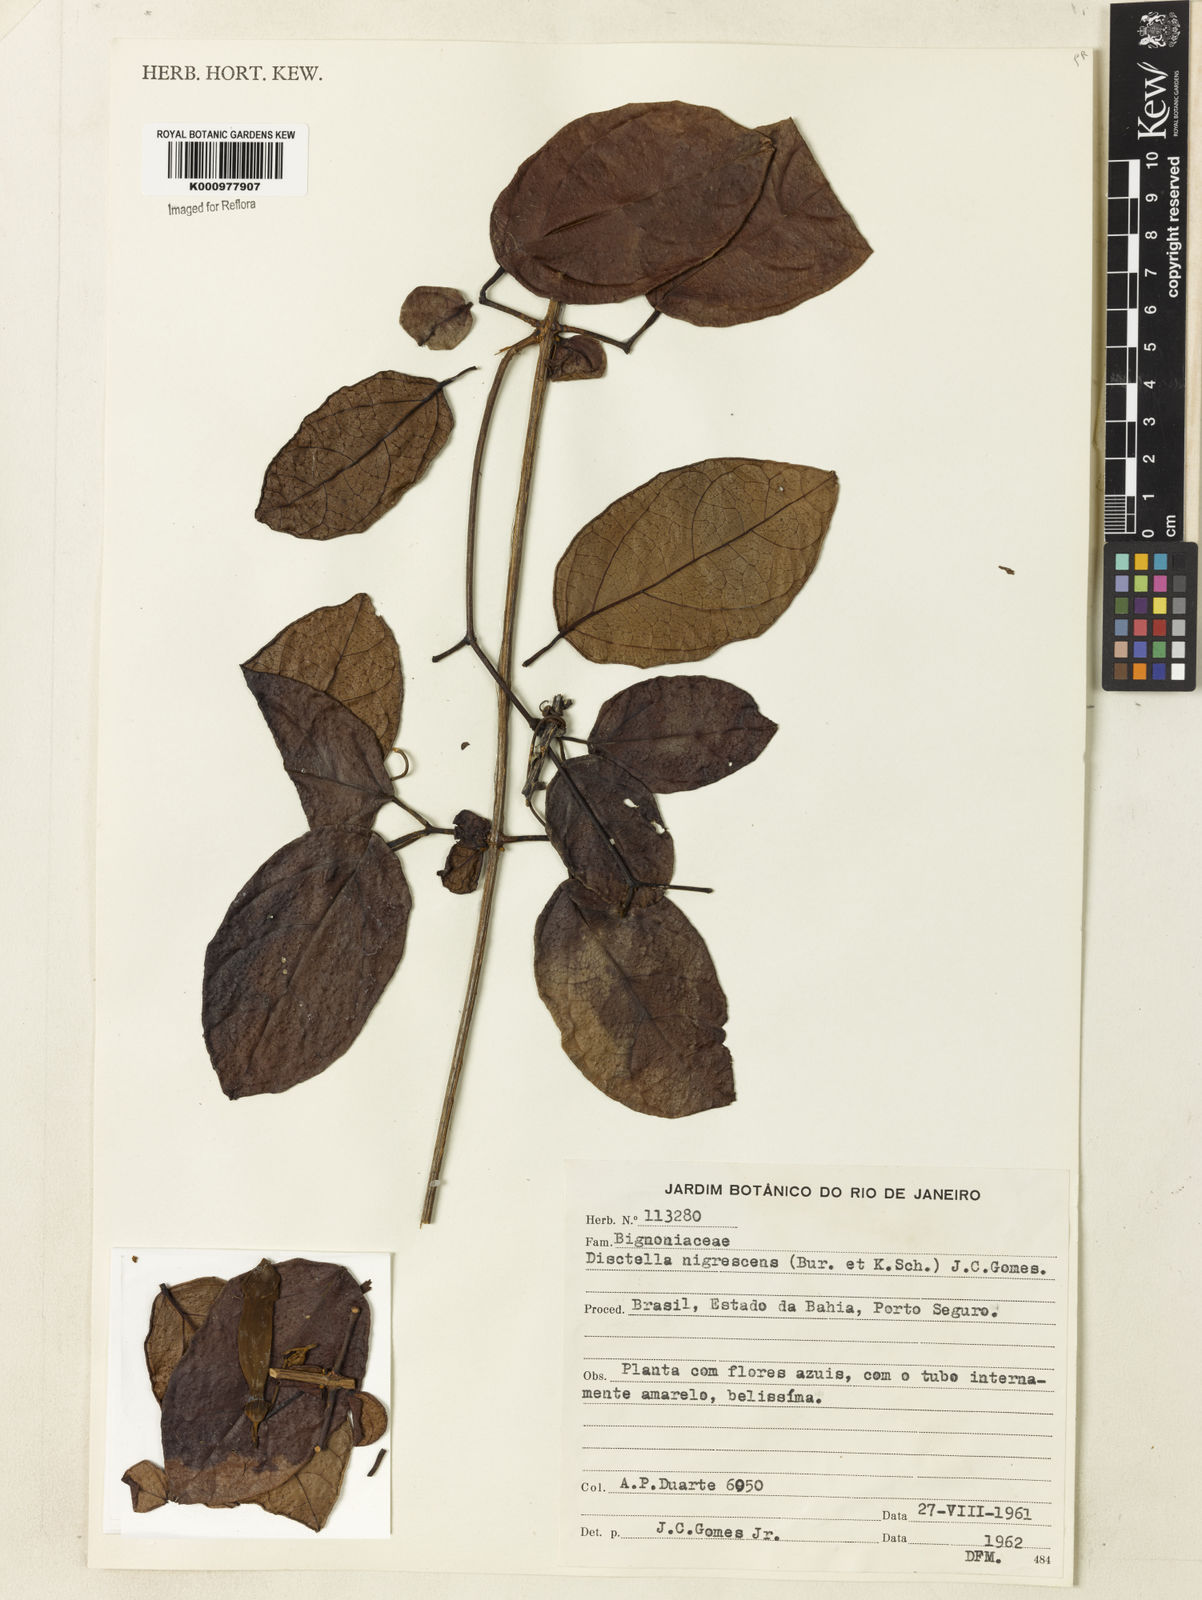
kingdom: Plantae
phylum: Tracheophyta
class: Magnoliopsida
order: Lamiales
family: Bignoniaceae
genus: Amphilophium
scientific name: Amphilophium frutescens
